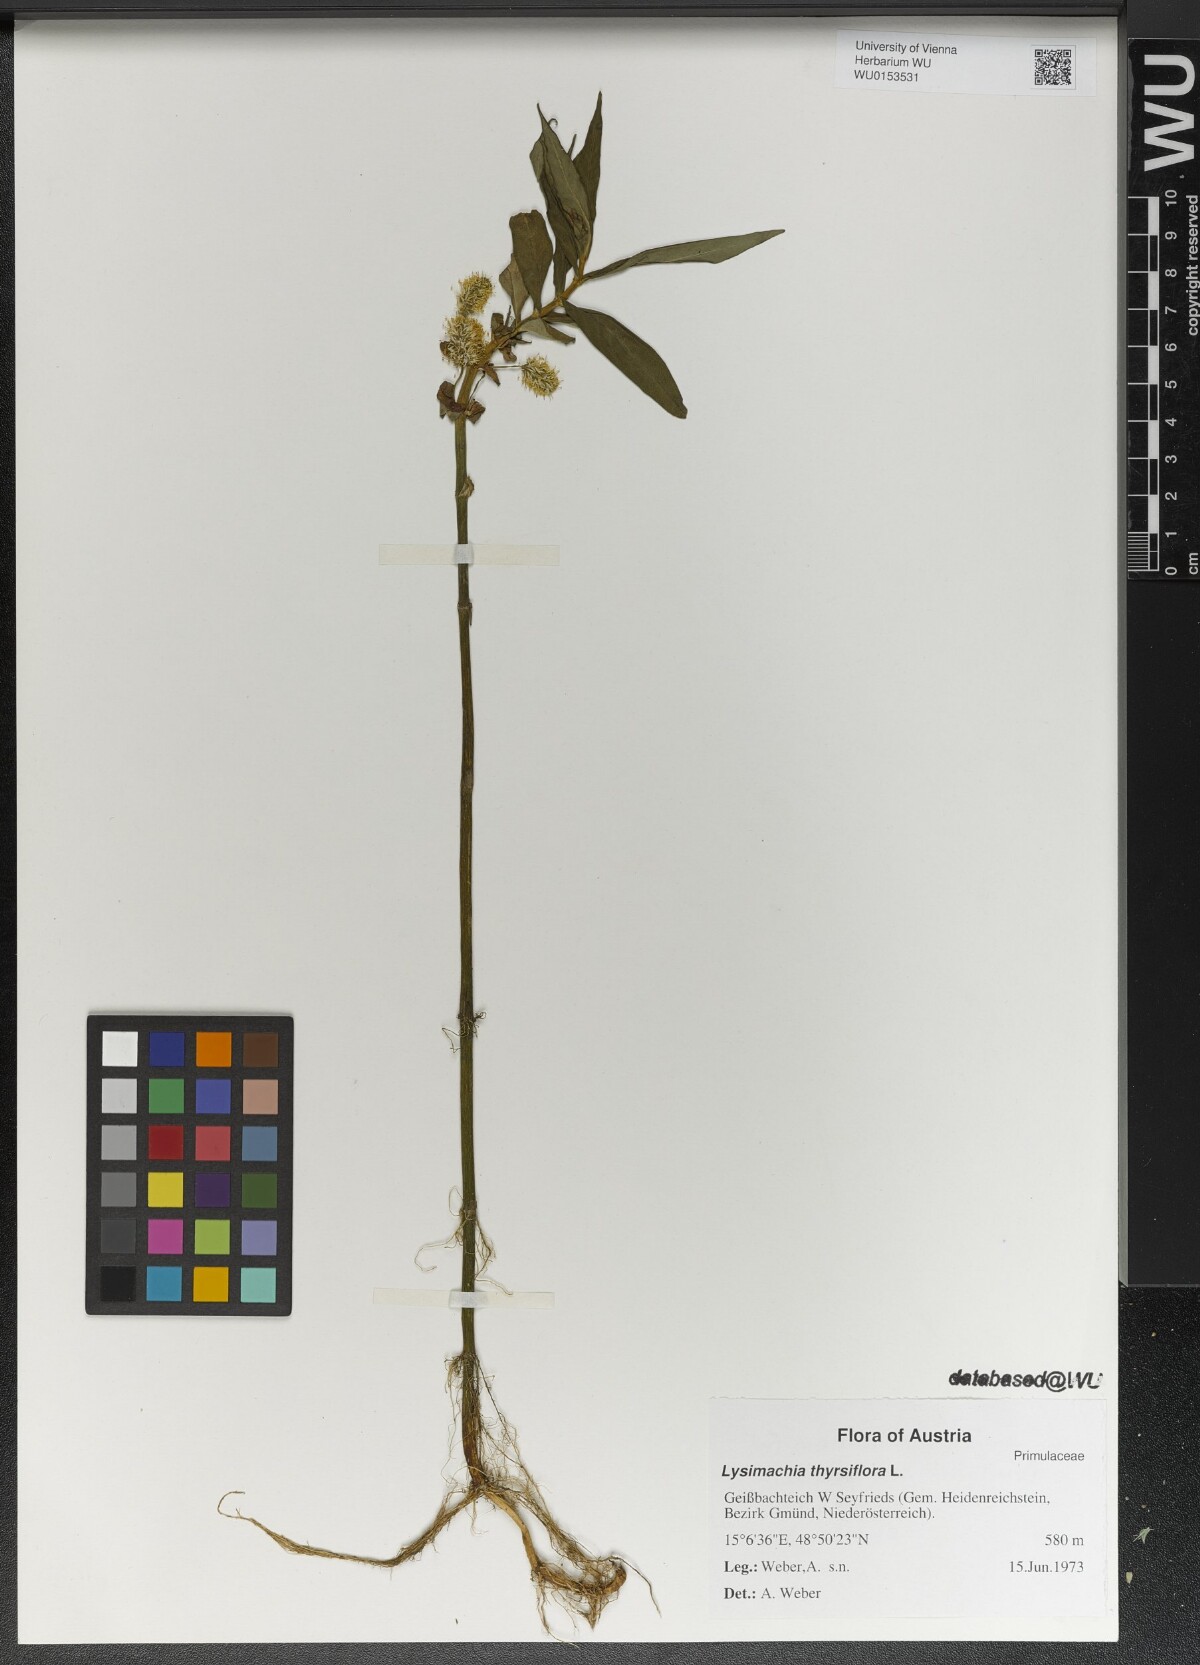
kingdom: Plantae
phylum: Tracheophyta
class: Magnoliopsida
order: Ericales
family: Primulaceae
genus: Lysimachia
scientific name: Lysimachia thyrsiflora
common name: Tufted loosestrife
